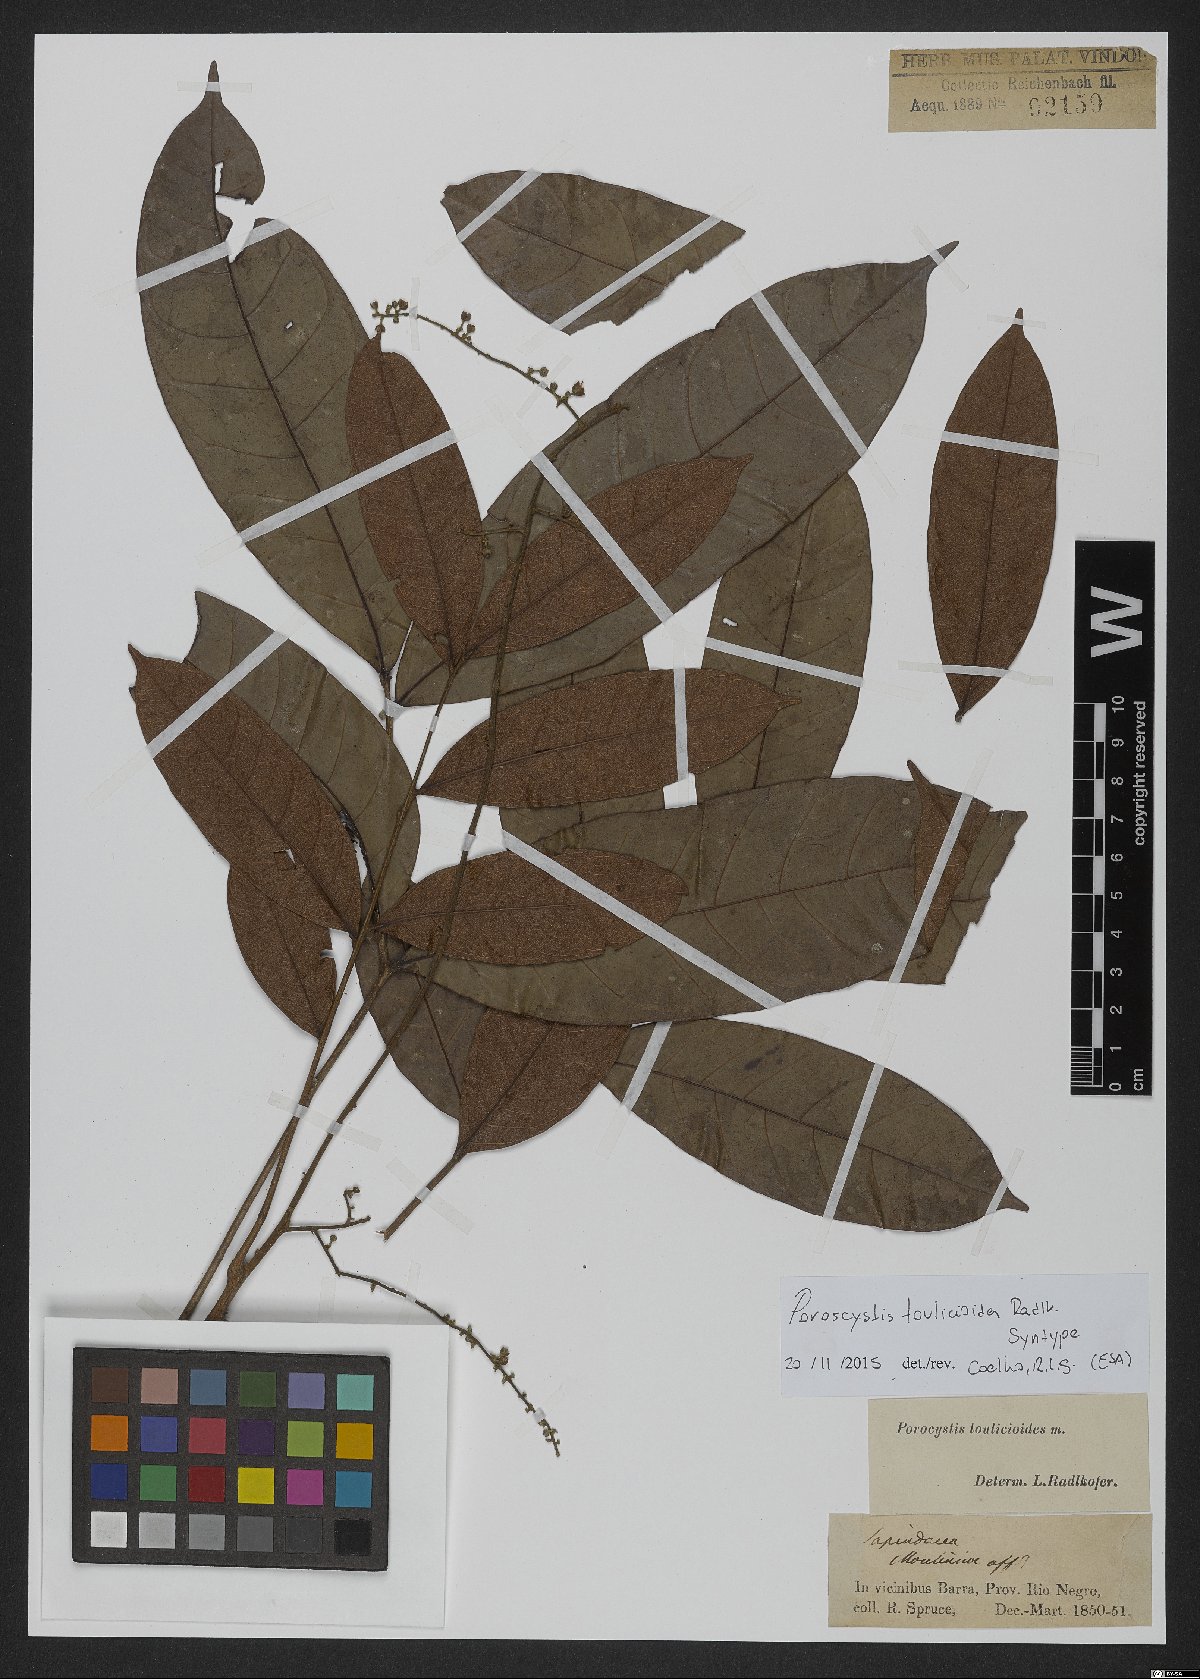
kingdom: Plantae
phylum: Tracheophyta
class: Magnoliopsida
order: Sapindales
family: Sapindaceae
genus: Porocystis
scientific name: Porocystis toulicioides
